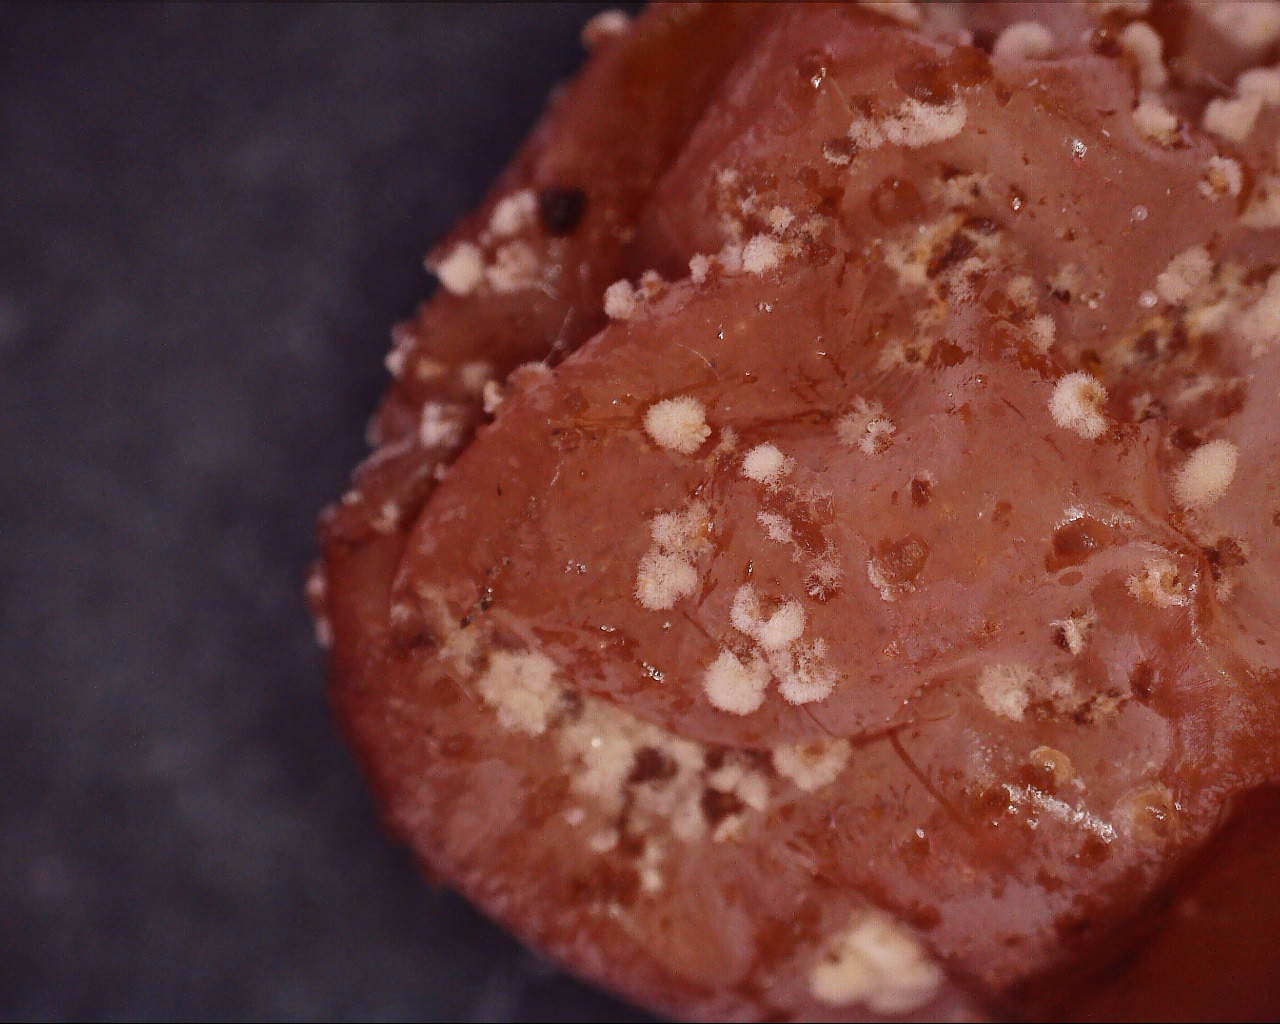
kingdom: Fungi
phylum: Ascomycota
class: Leotiomycetes
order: Helotiales
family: Sclerotiniaceae
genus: Monilinia
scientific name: Monilinia laxa
